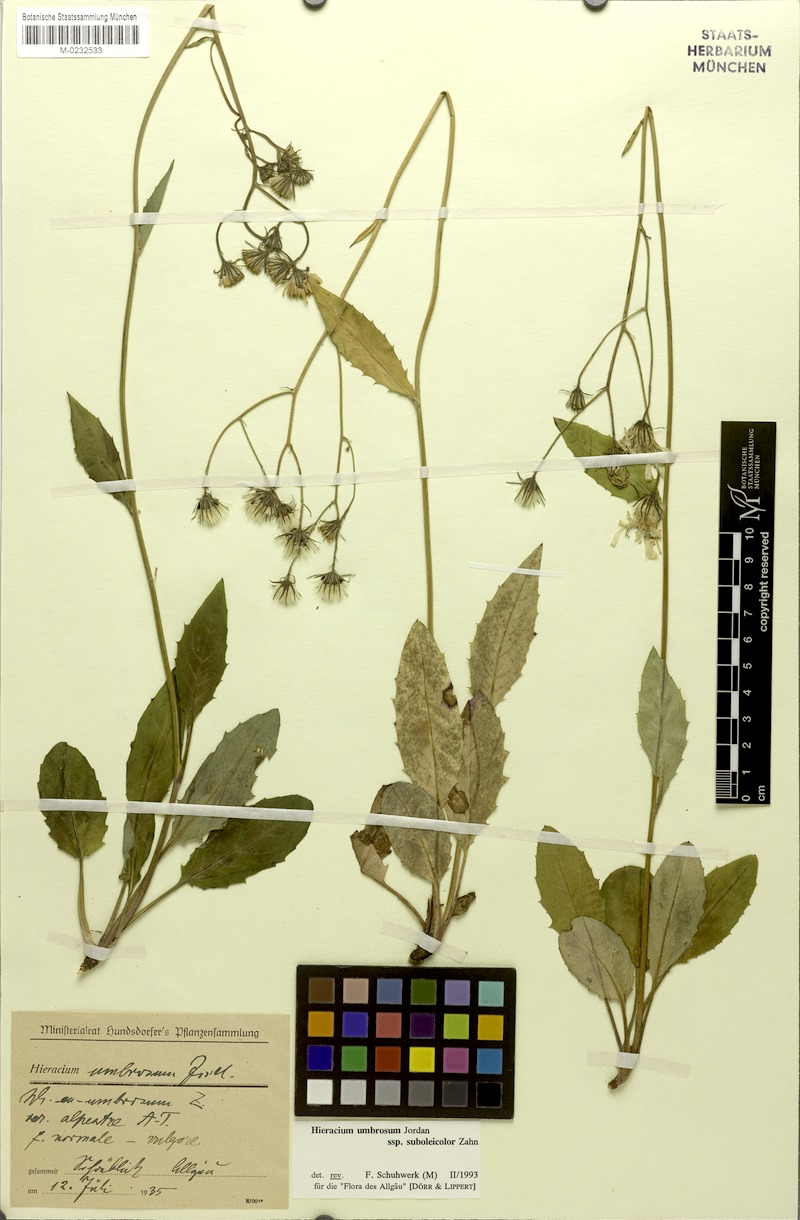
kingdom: Plantae
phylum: Tracheophyta
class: Magnoliopsida
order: Asterales
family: Asteraceae
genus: Hieracium
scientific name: Hieracium umbrosum
